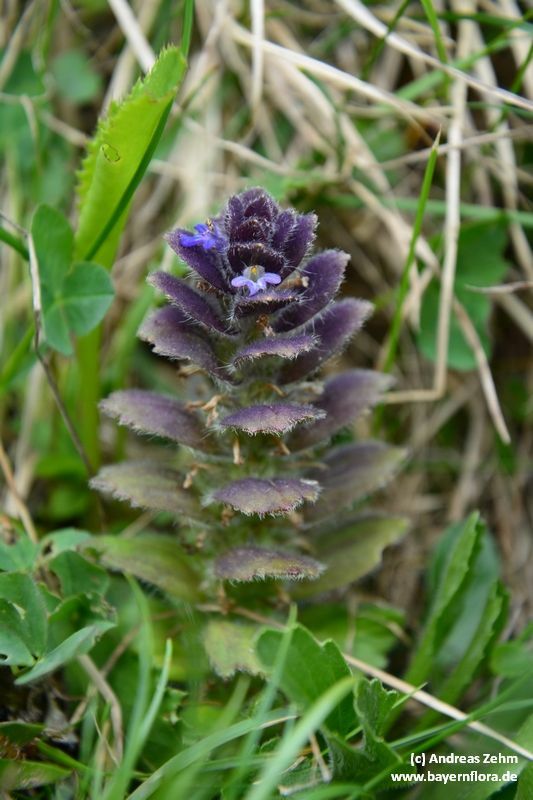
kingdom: Plantae
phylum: Tracheophyta
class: Magnoliopsida
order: Lamiales
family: Lamiaceae
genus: Ajuga
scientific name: Ajuga pyramidalis
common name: Pyramid bugle
